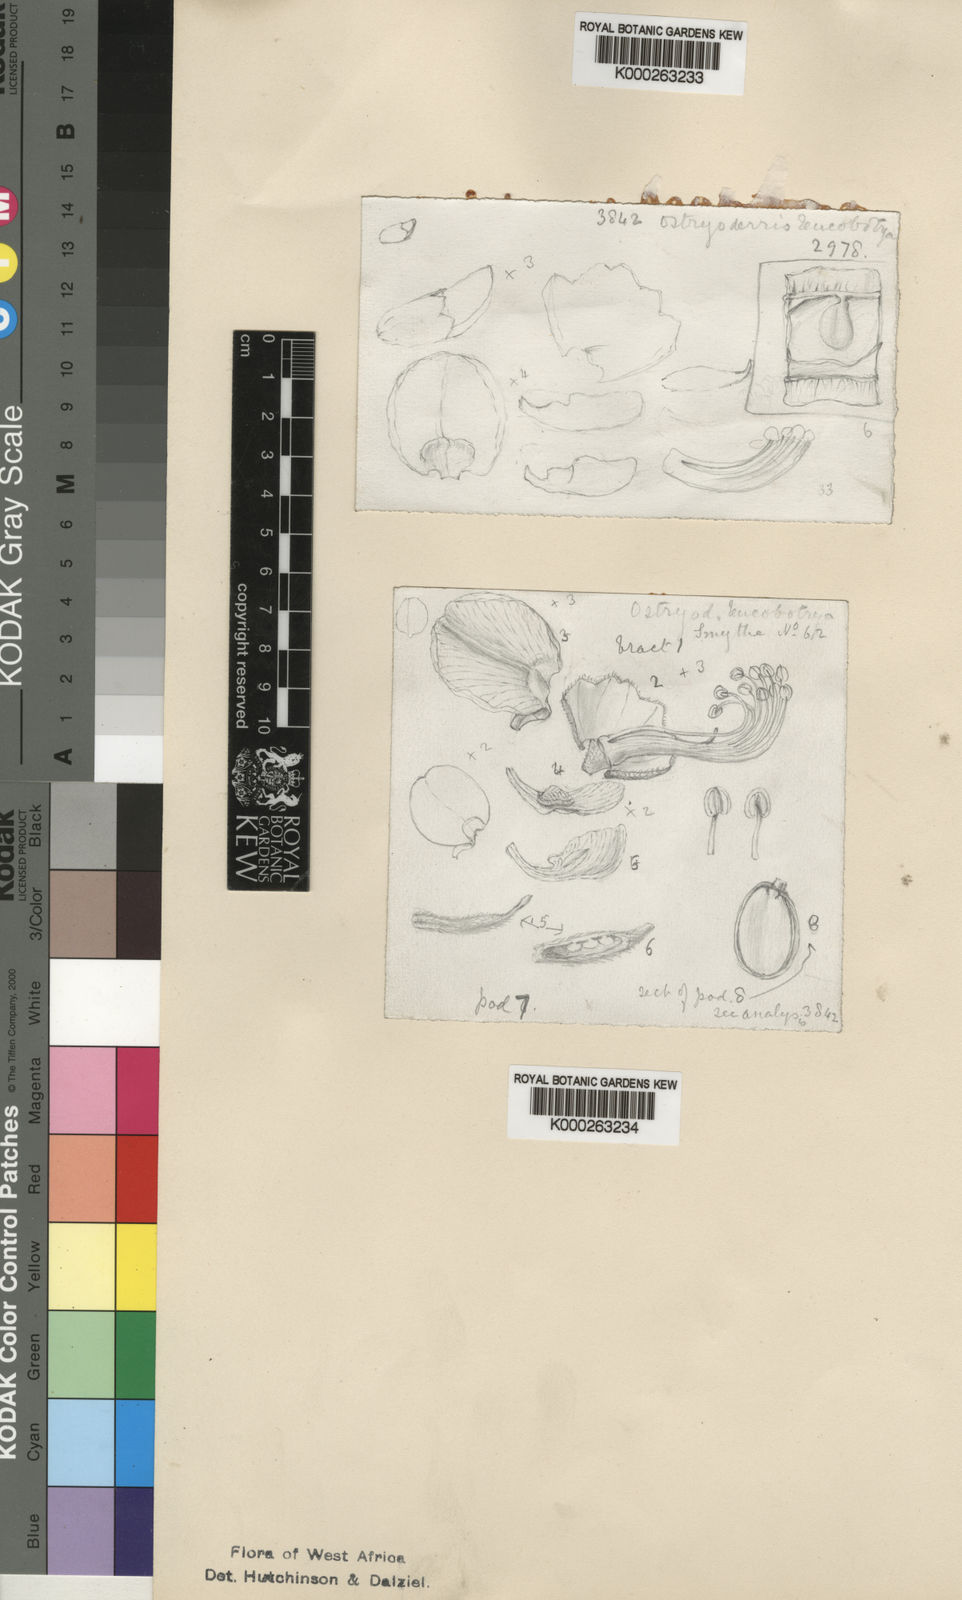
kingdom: Plantae
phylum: Tracheophyta
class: Magnoliopsida
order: Fabales
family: Fabaceae
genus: Aganope
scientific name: Aganope leucobotrya
